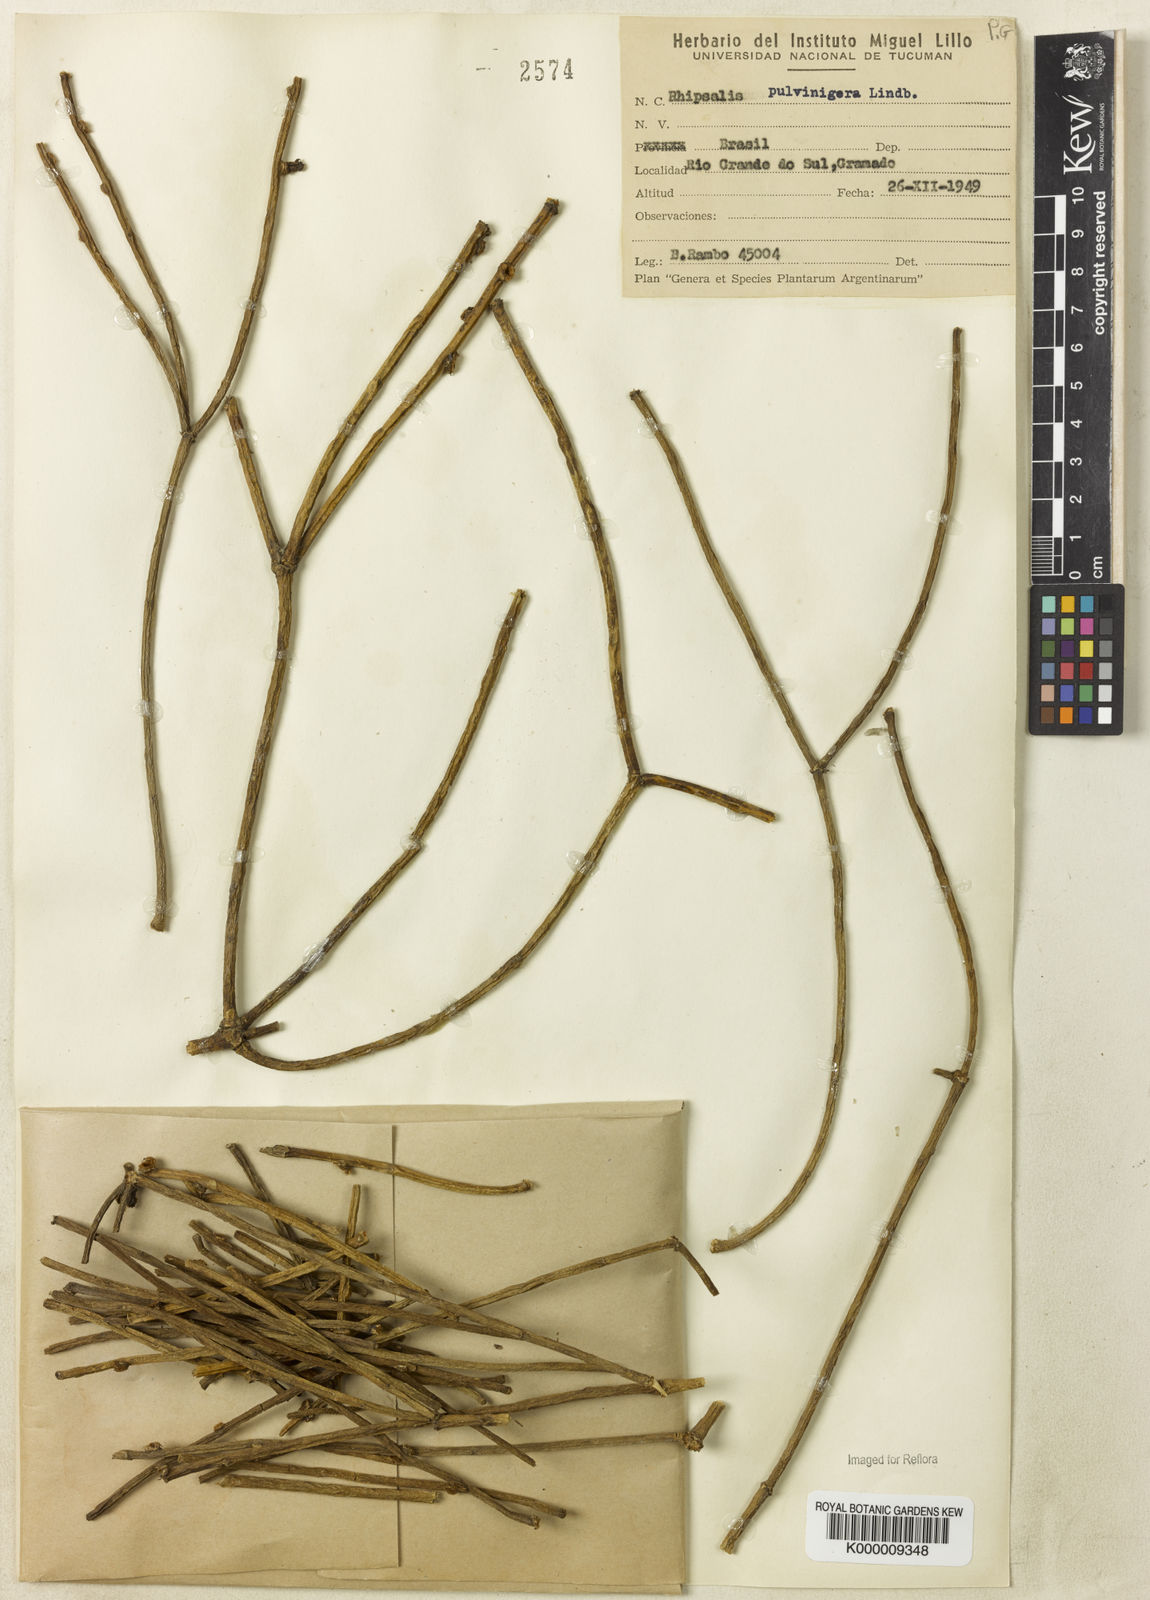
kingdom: Plantae
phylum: Tracheophyta
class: Magnoliopsida
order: Caryophyllales
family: Cactaceae
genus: Rhipsalis
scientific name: Rhipsalis floccosa
